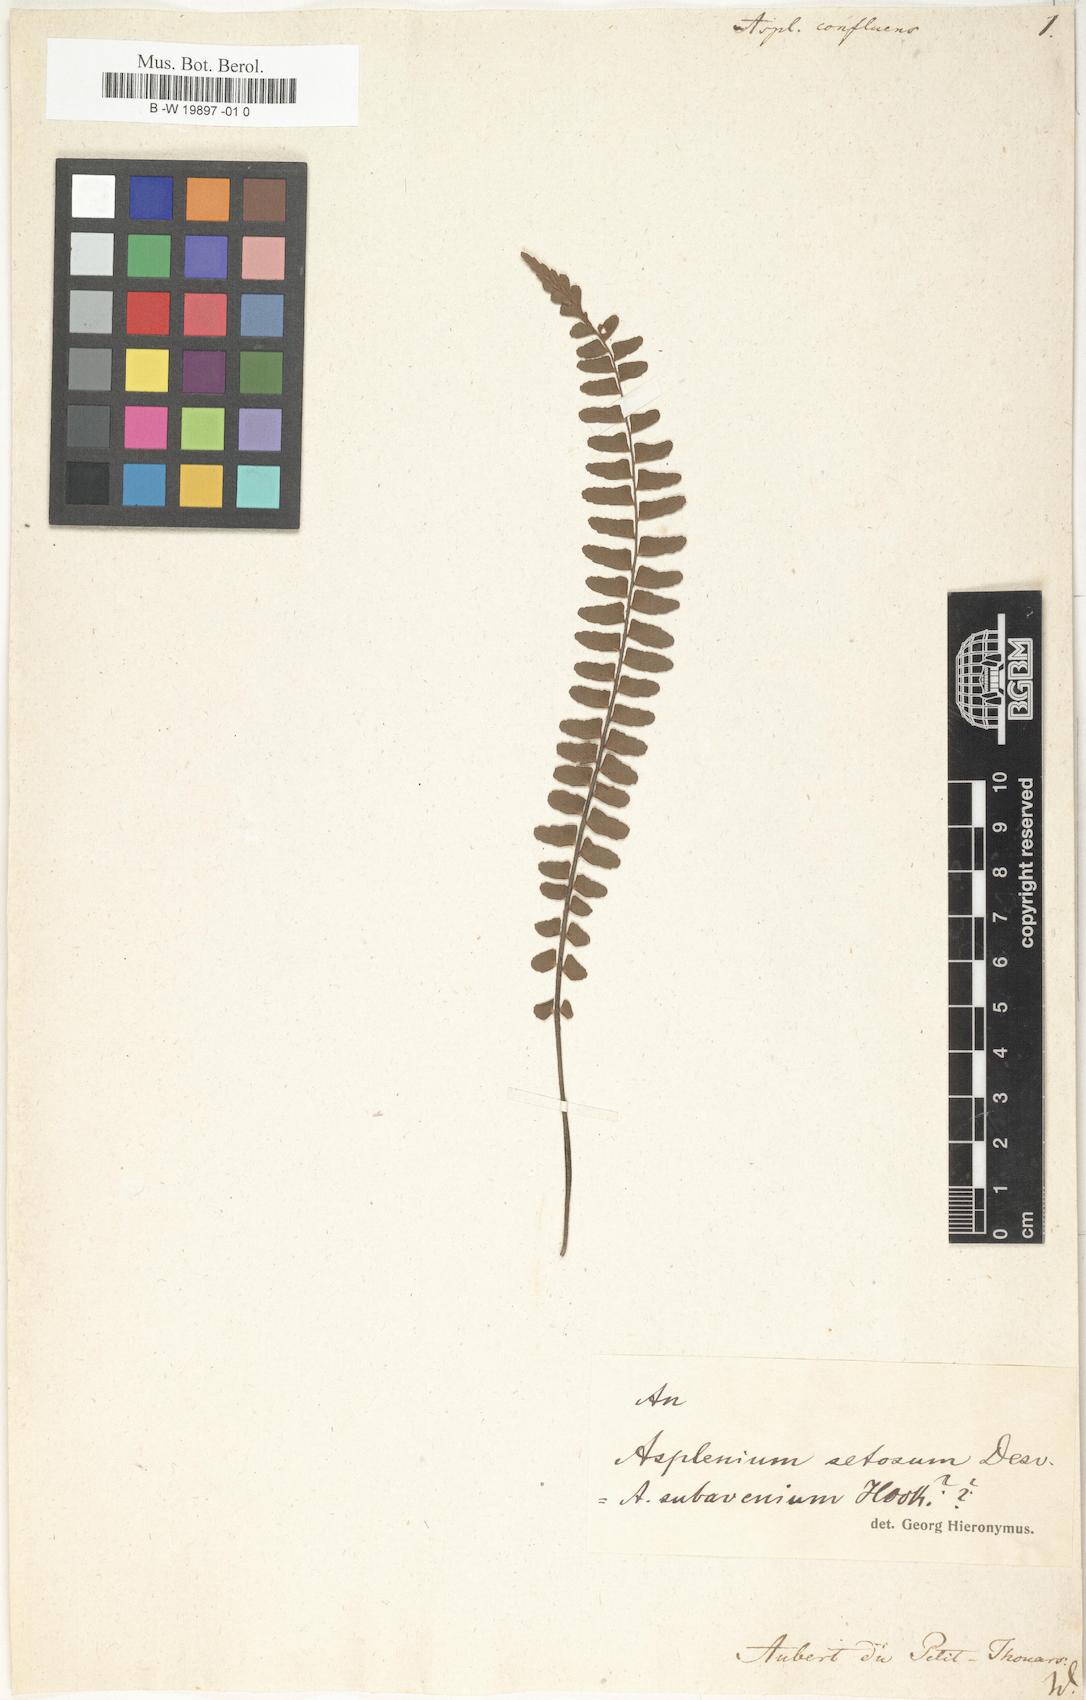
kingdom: Plantae
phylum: Tracheophyta
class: Polypodiopsida
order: Polypodiales
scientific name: Polypodiales
